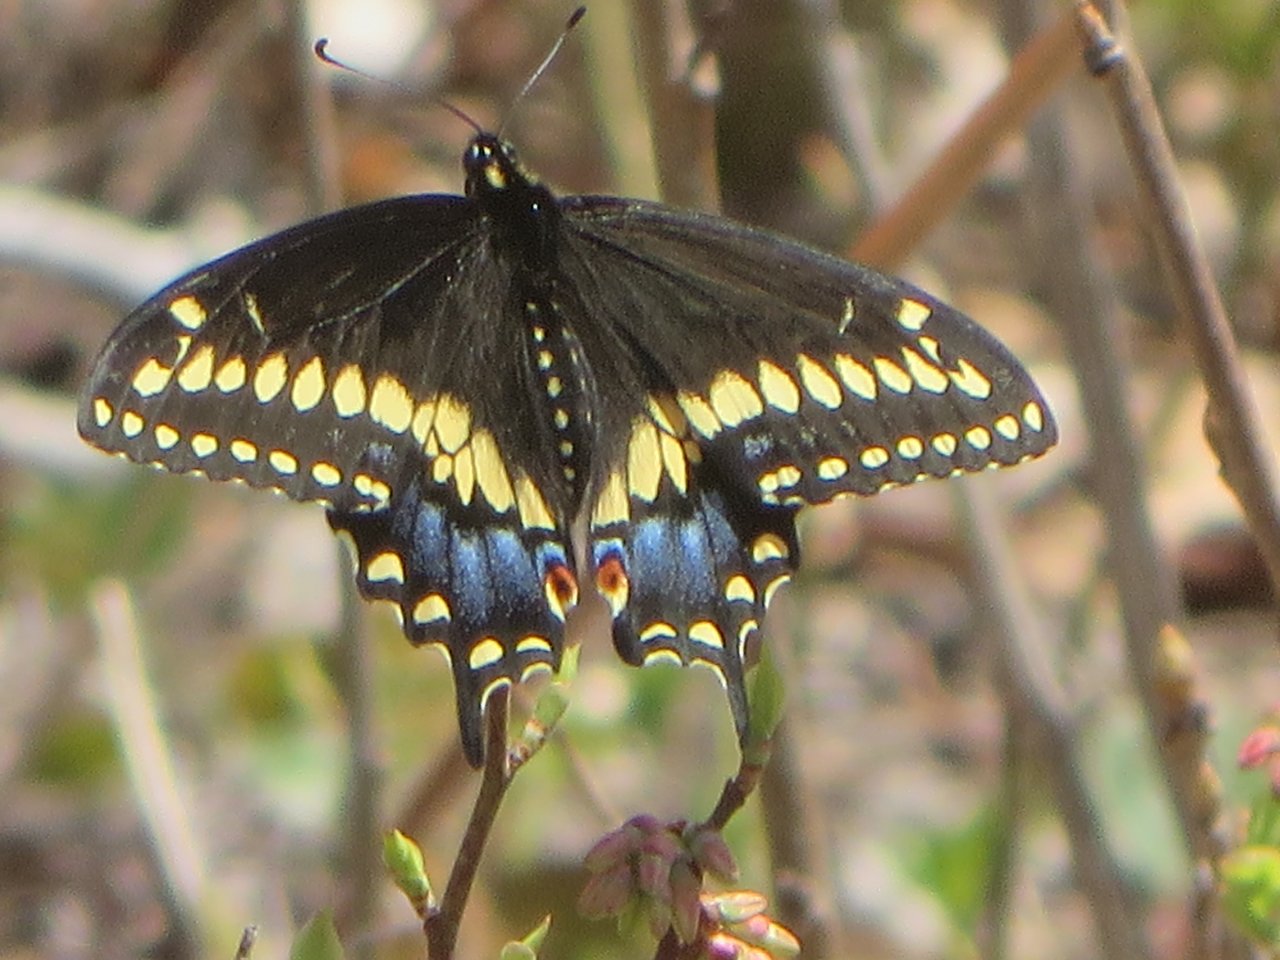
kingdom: Animalia
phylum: Arthropoda
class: Insecta
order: Lepidoptera
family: Papilionidae
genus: Papilio
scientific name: Papilio polyxenes
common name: Black Swallowtail
